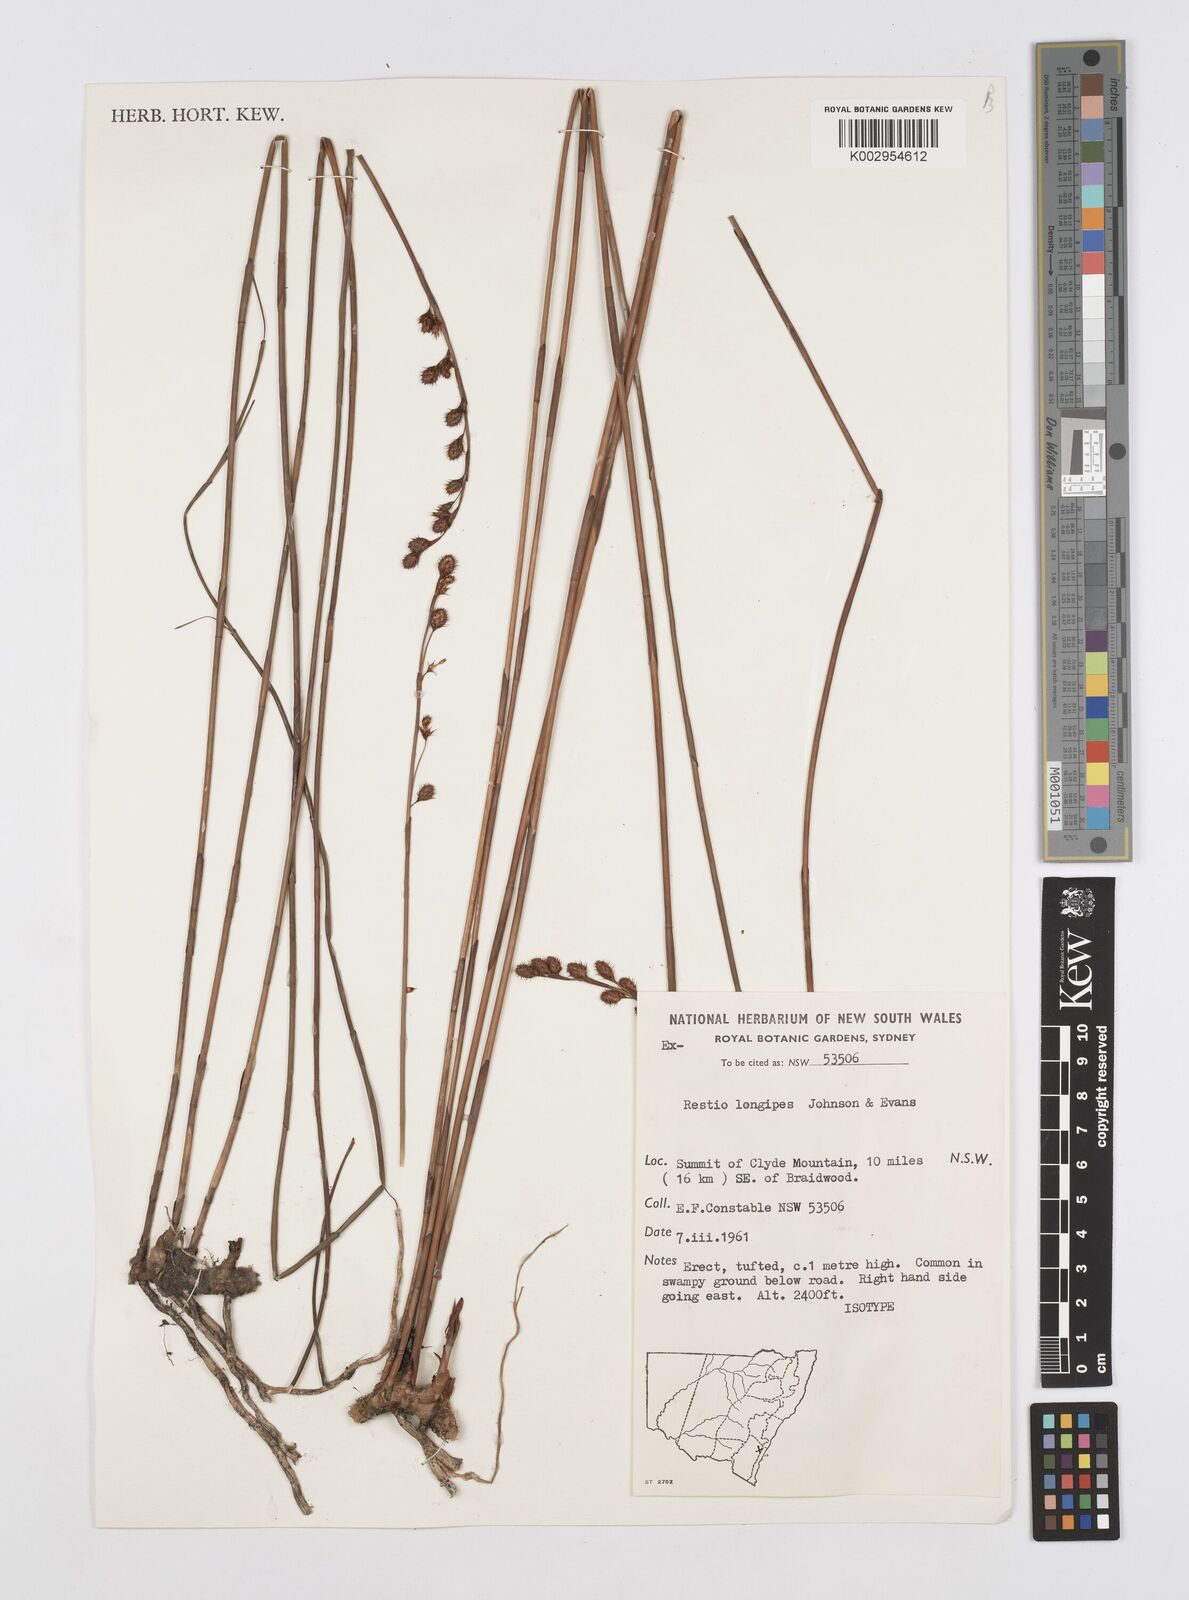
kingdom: Plantae
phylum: Tracheophyta
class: Liliopsida
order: Poales
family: Restionaceae
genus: Baloskion
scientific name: Baloskion longipes
